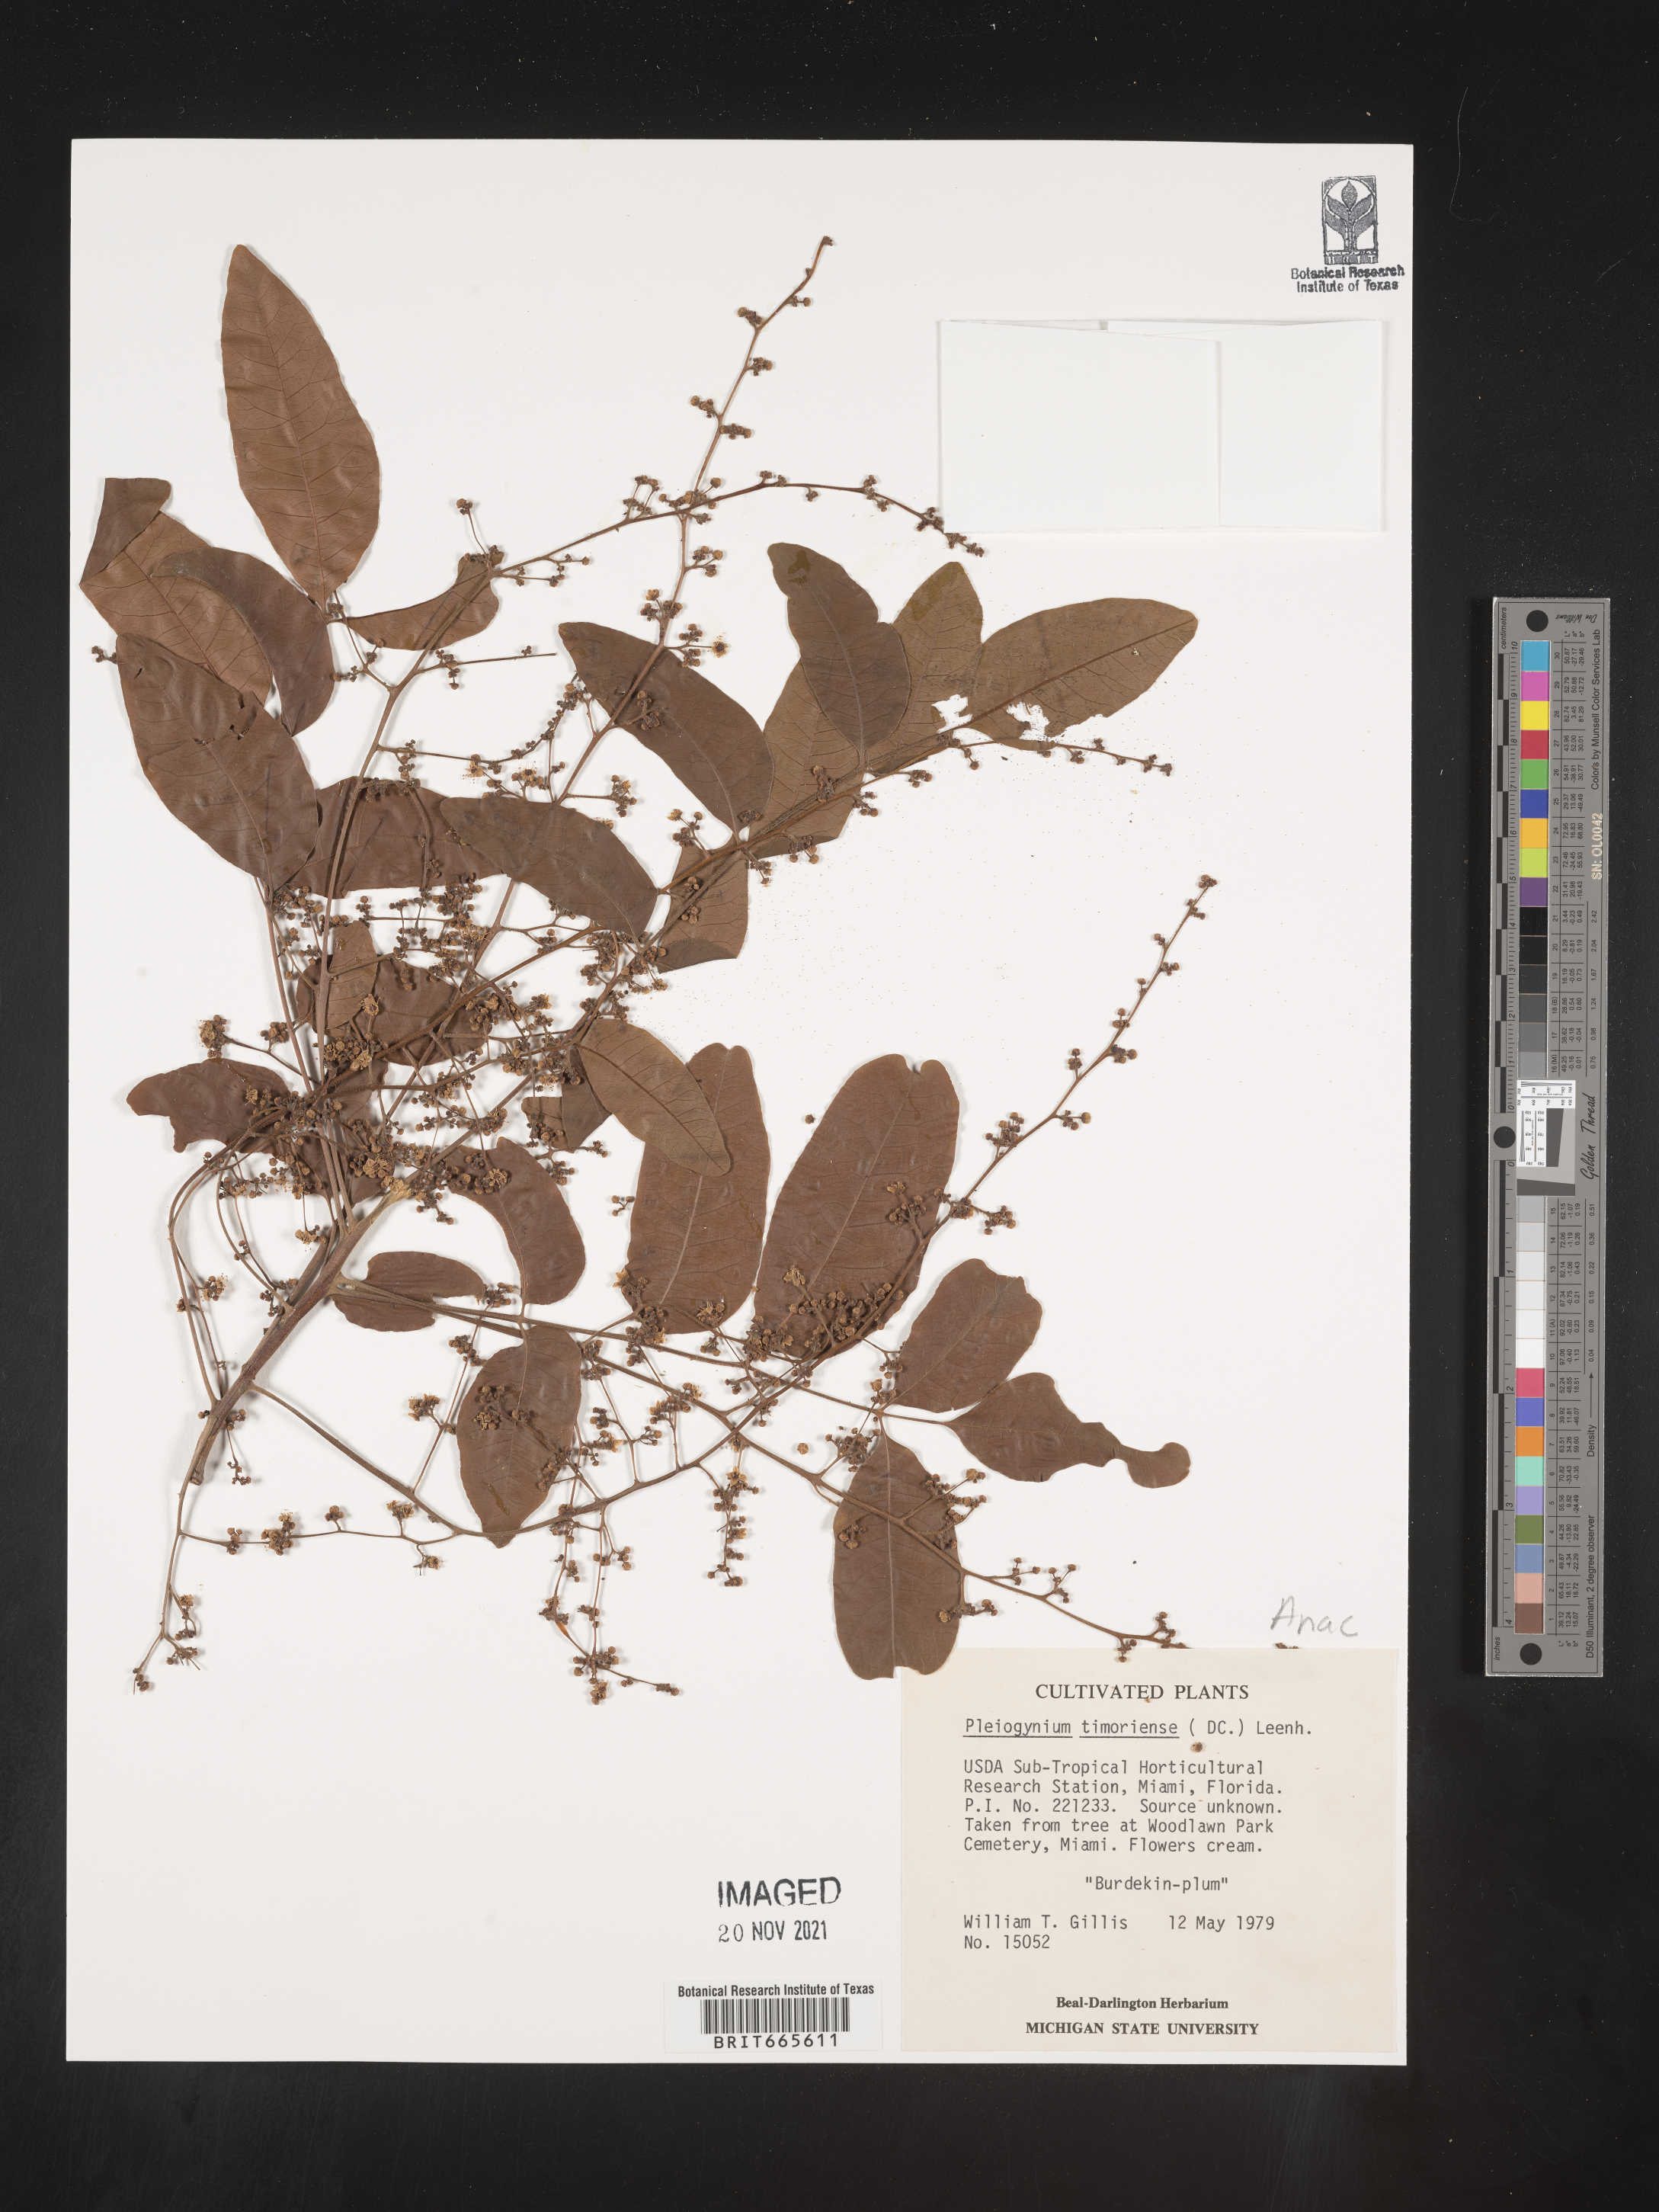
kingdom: Plantae
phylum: Tracheophyta
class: Magnoliopsida
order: Sapindales
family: Anacardiaceae
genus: Pleiogynium
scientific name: Pleiogynium
